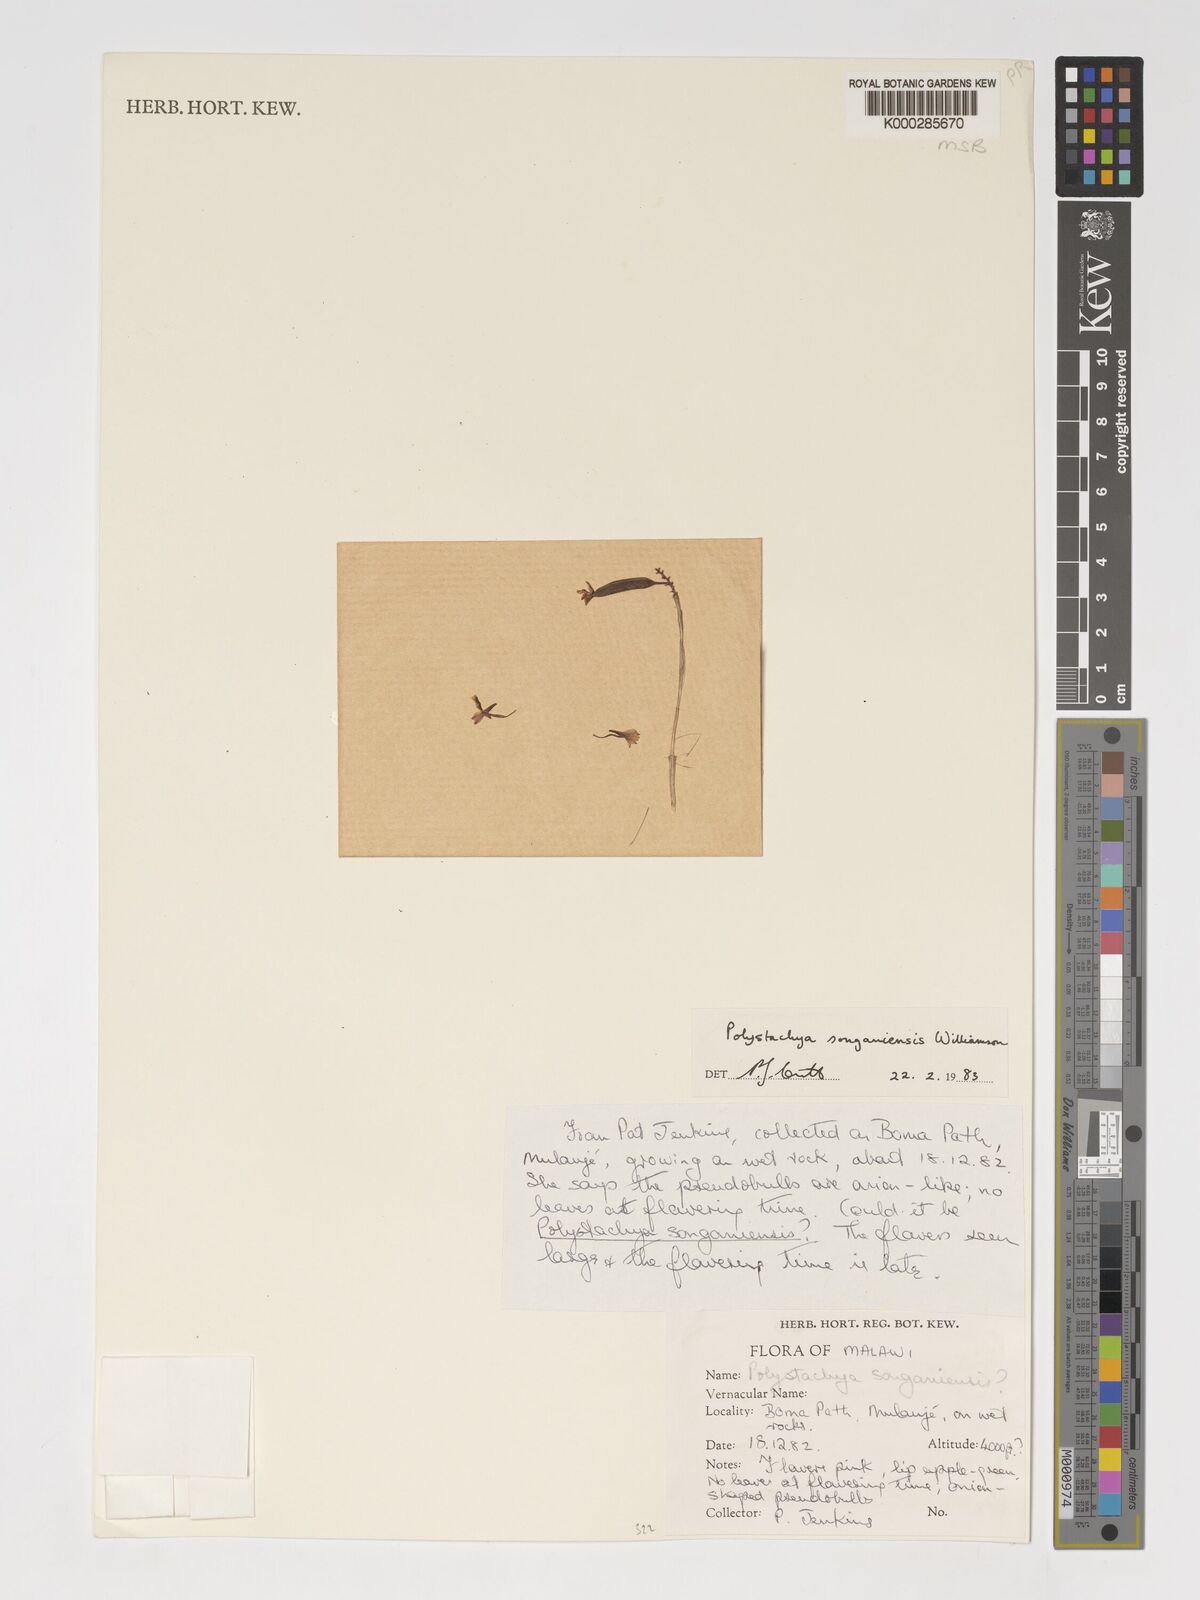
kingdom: Plantae
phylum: Tracheophyta
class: Liliopsida
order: Asparagales
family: Orchidaceae
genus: Polystachya
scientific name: Polystachya songaniensis
